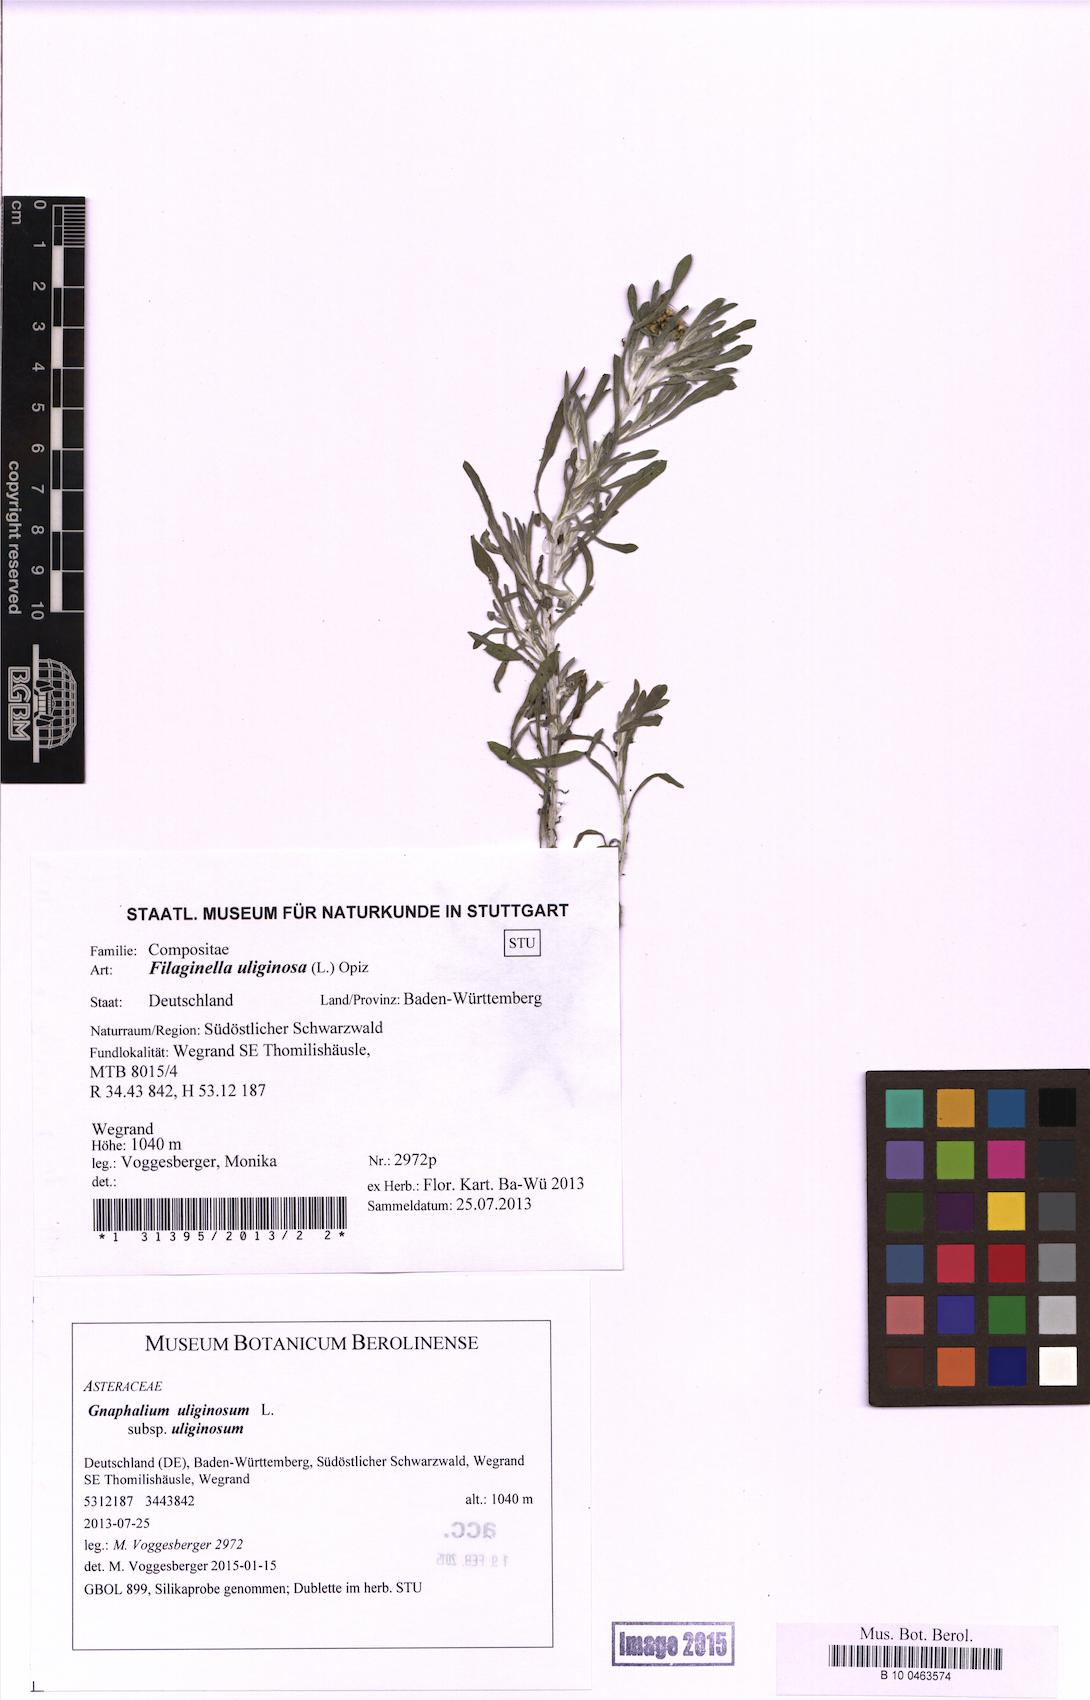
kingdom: Plantae
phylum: Tracheophyta
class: Magnoliopsida
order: Asterales
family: Asteraceae
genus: Gnaphalium
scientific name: Gnaphalium uliginosum
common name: Marsh cudweed
